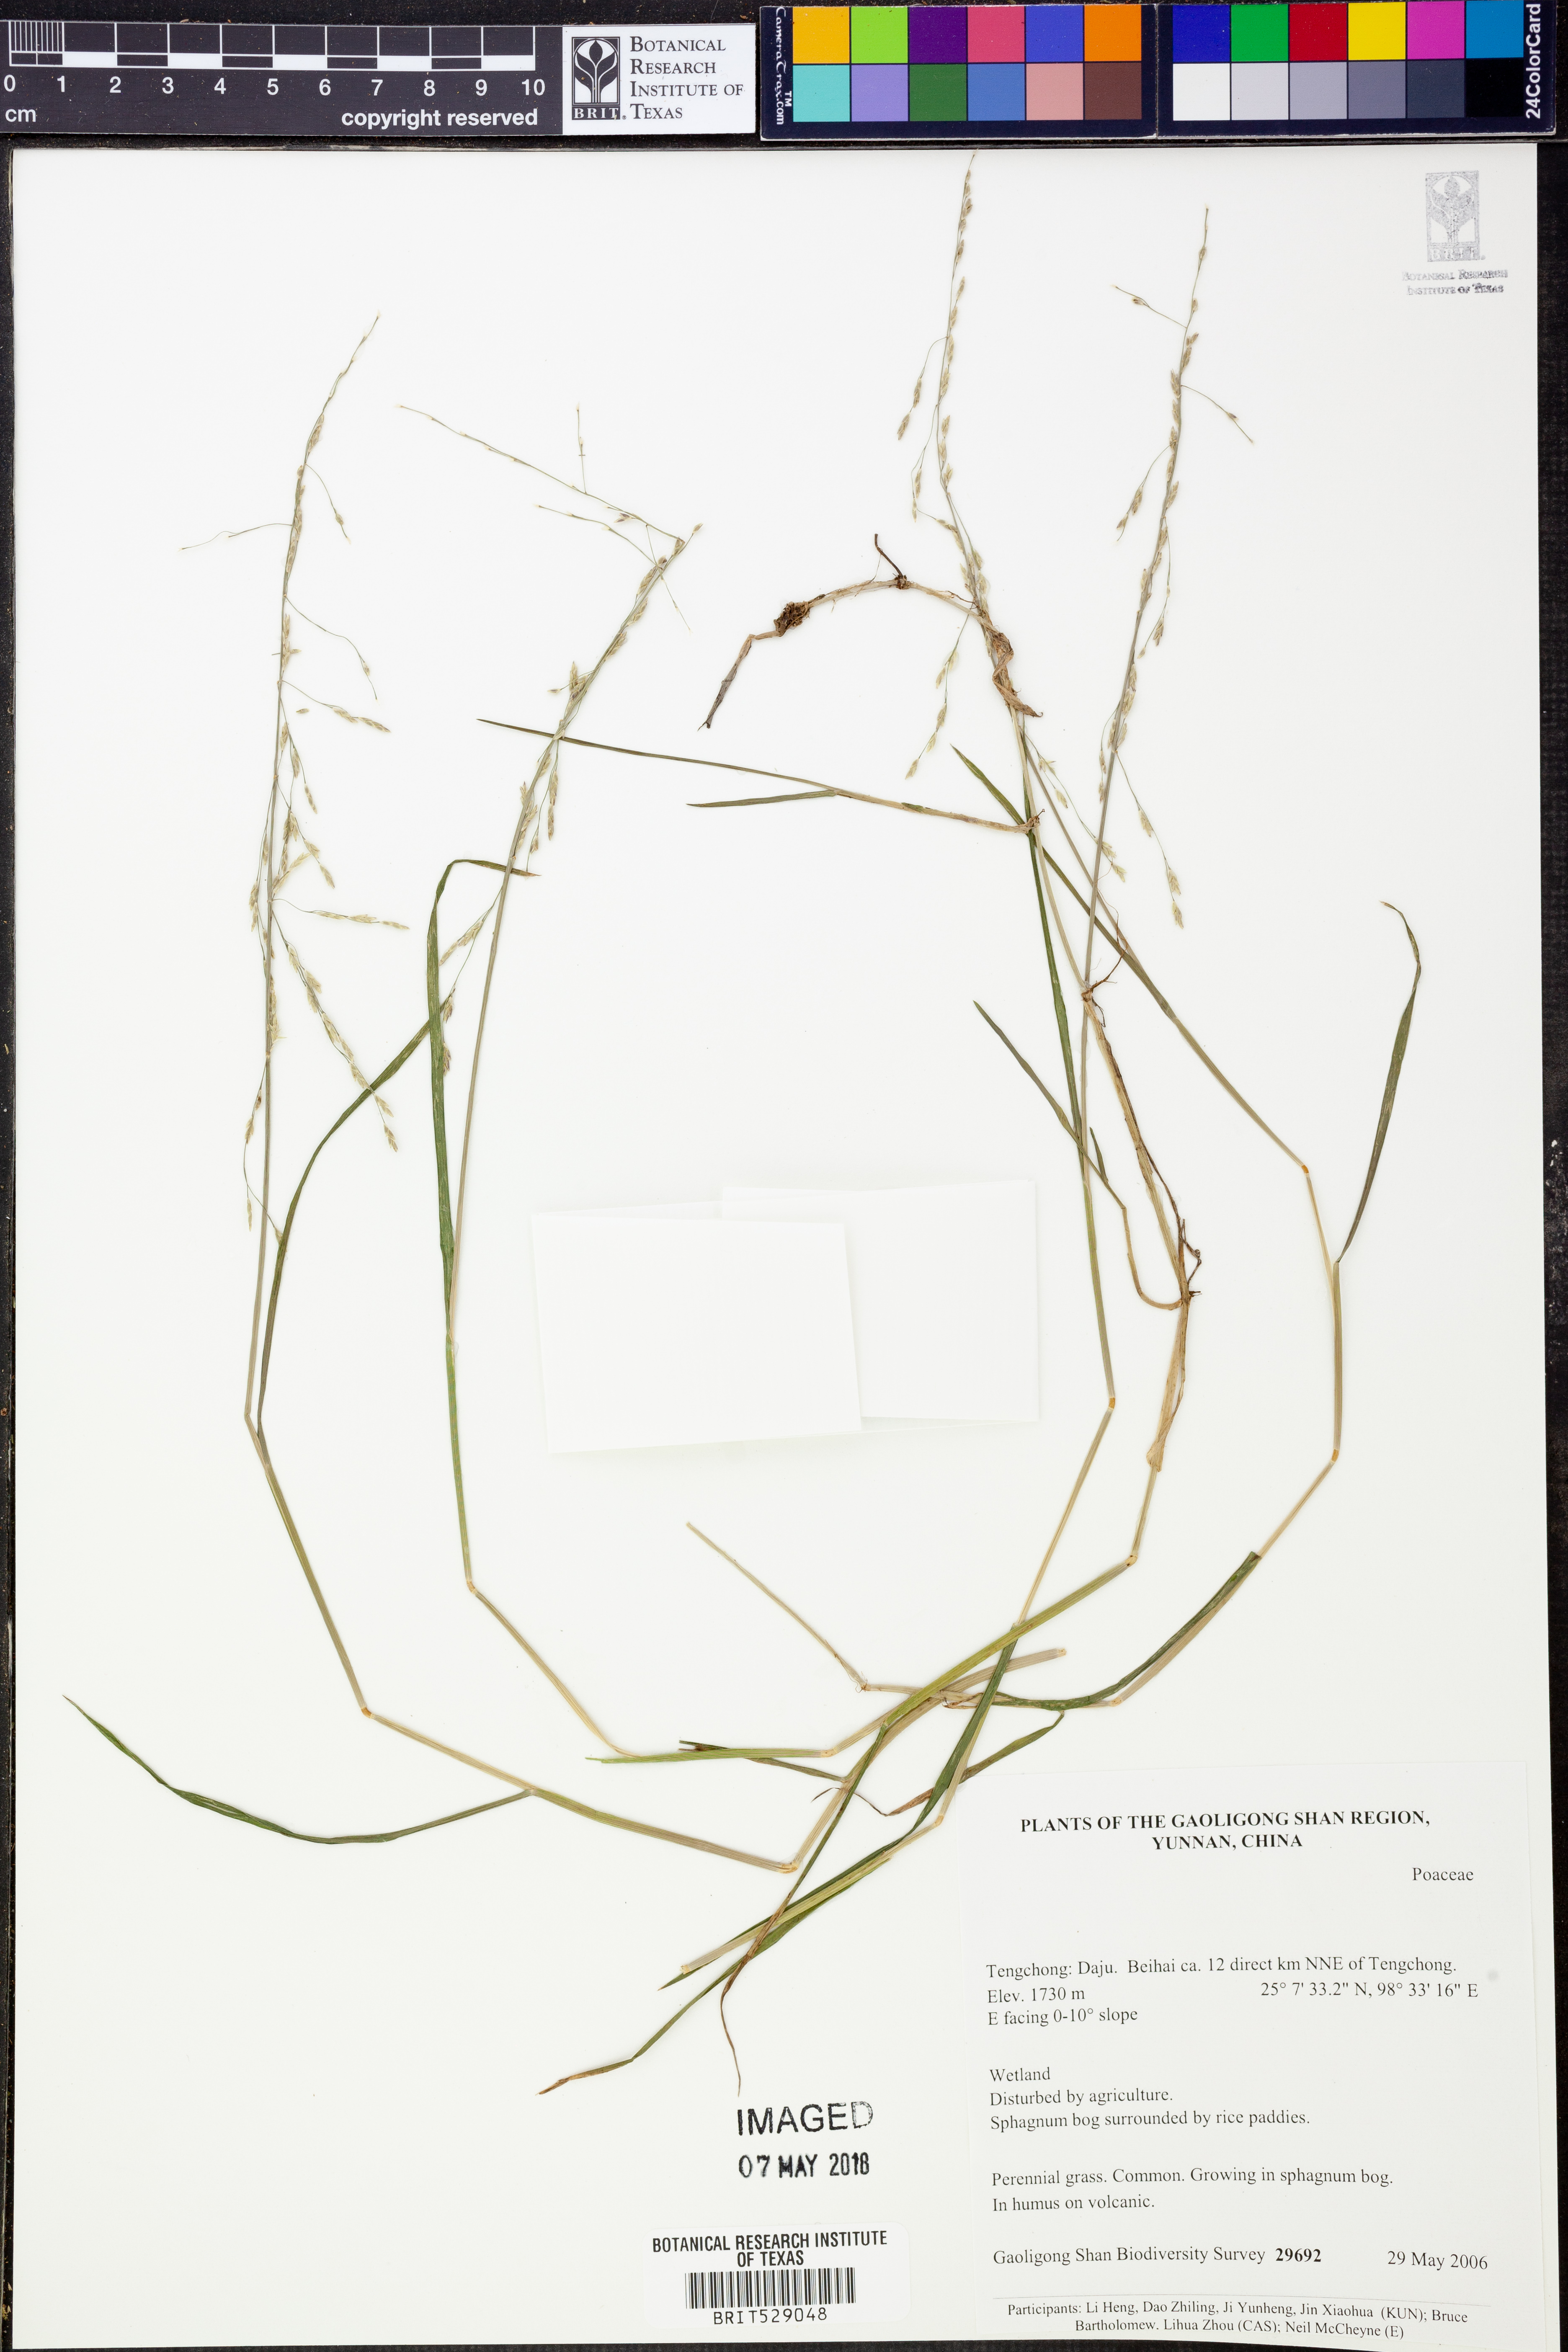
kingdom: Plantae
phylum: Tracheophyta
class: Liliopsida
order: Poales
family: Poaceae
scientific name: Poaceae
